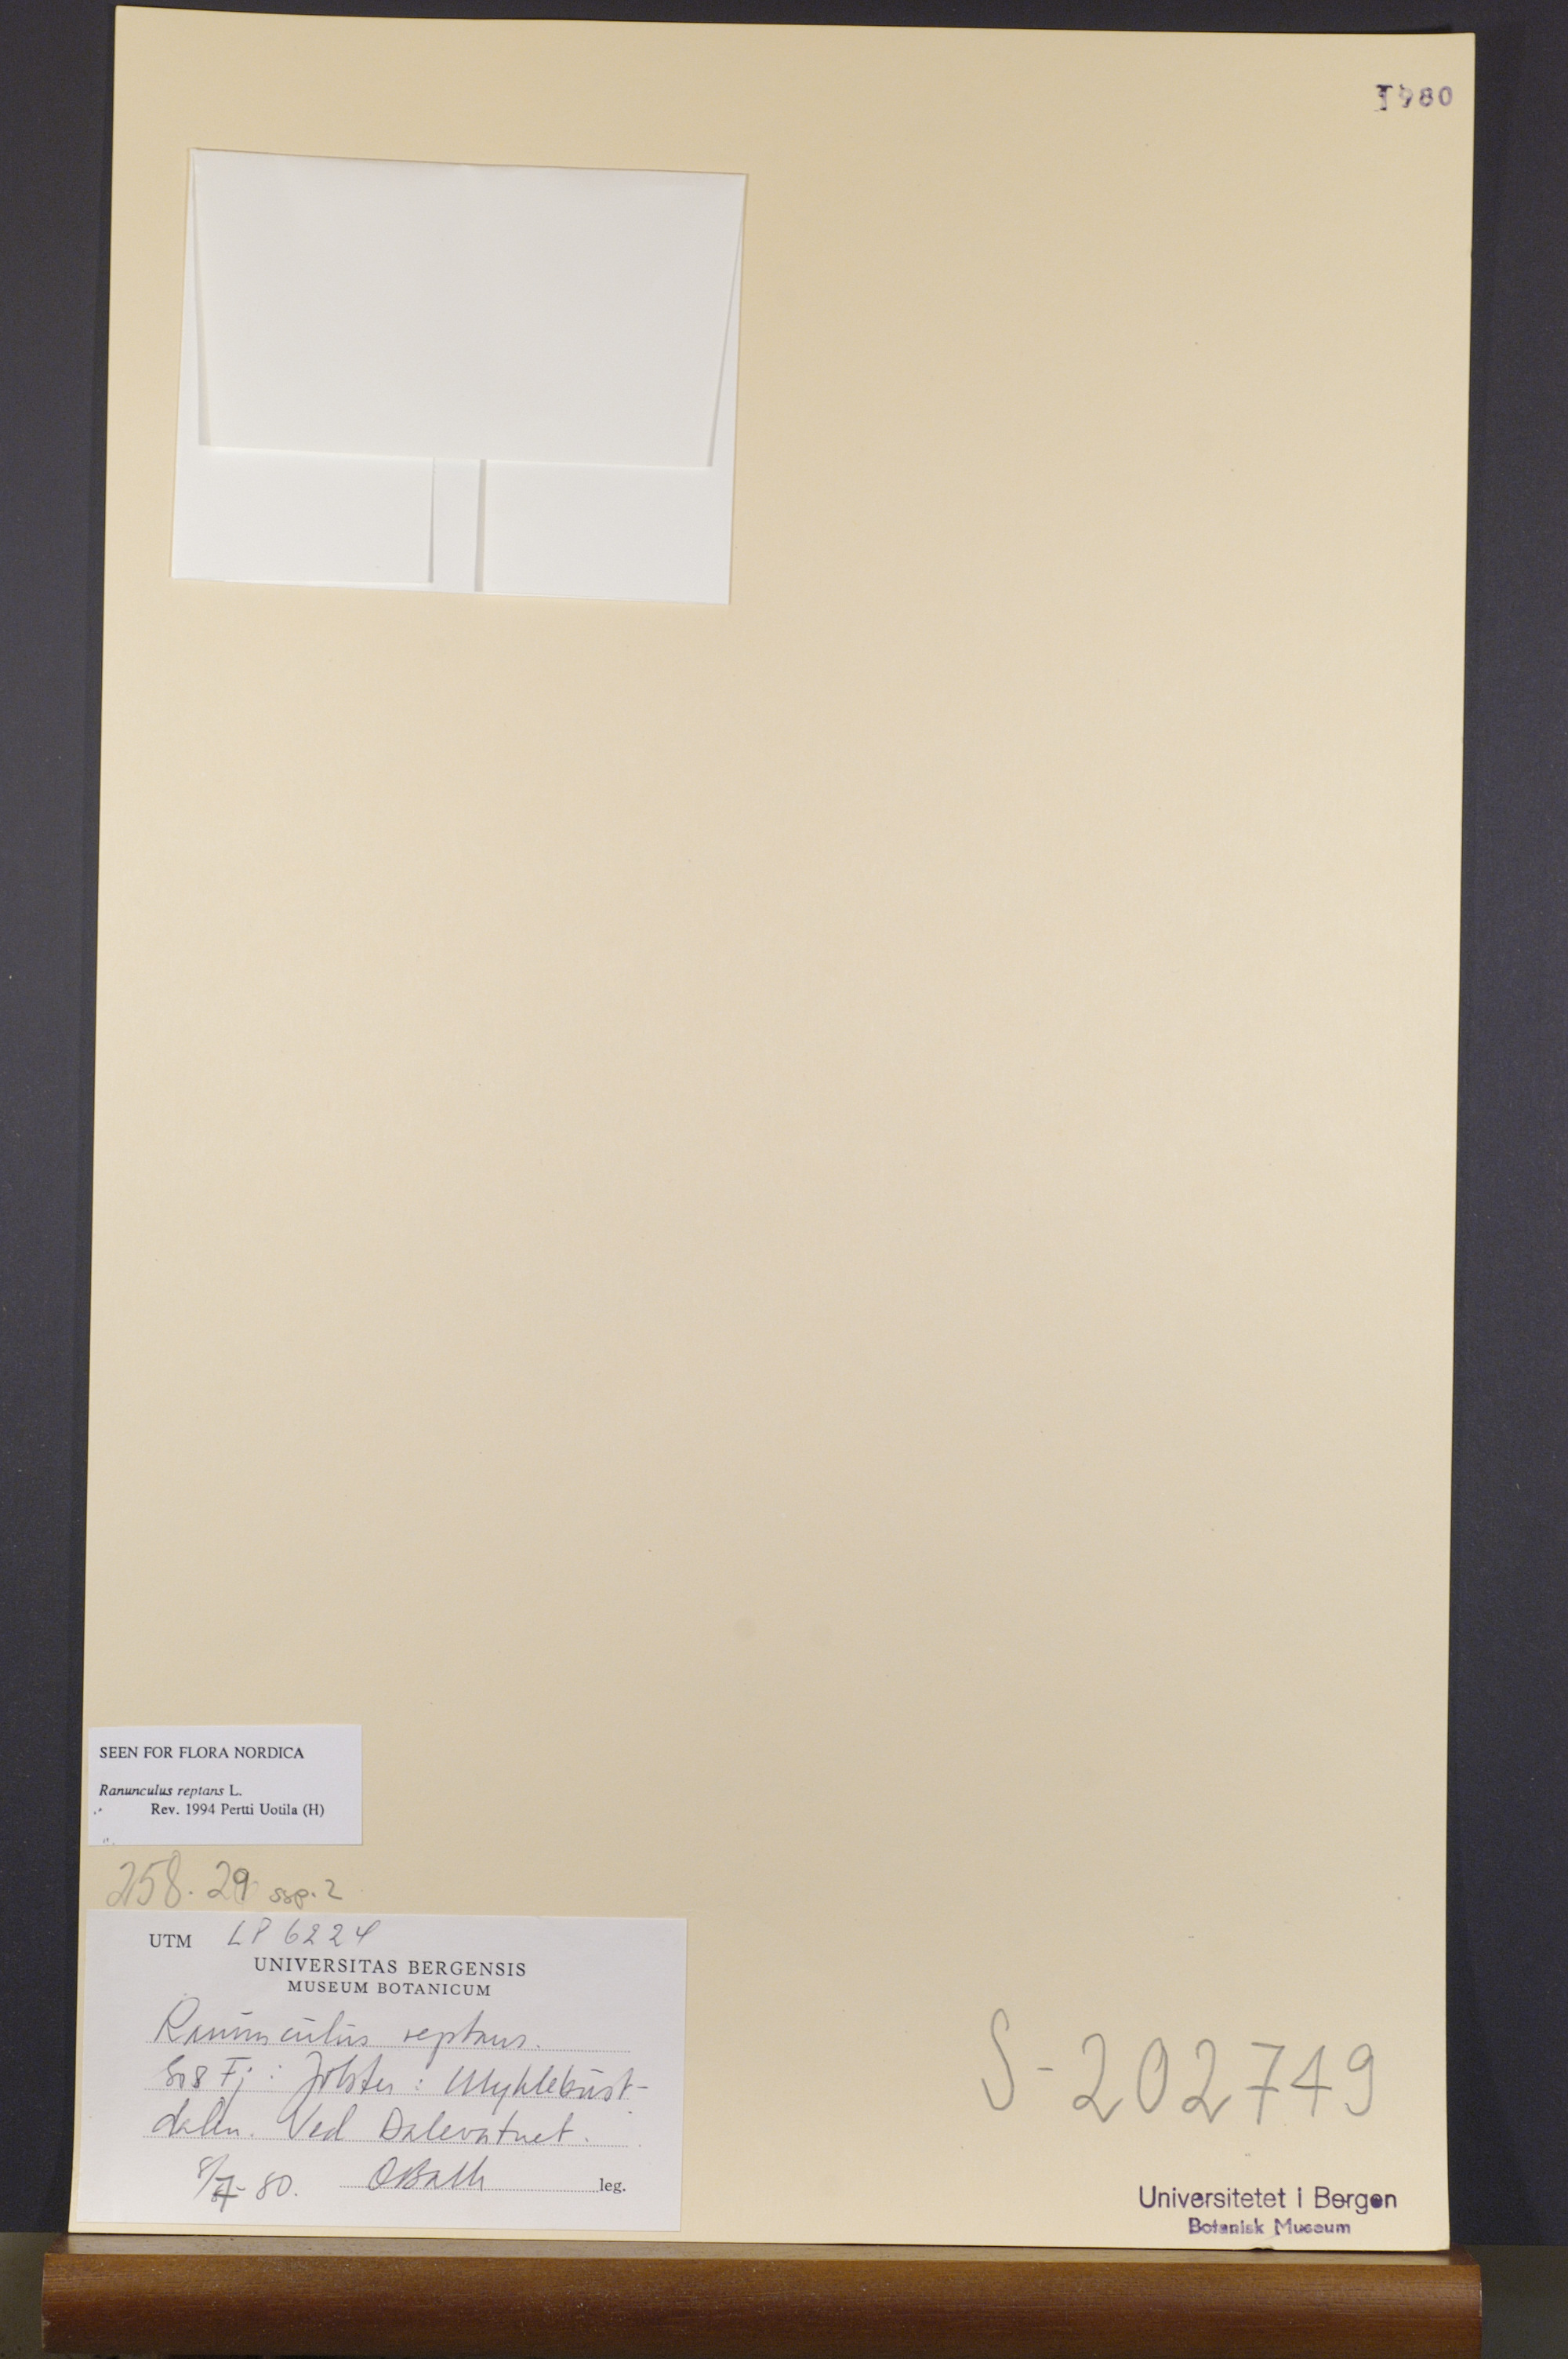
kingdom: Plantae
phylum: Tracheophyta
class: Magnoliopsida
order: Ranunculales
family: Ranunculaceae
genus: Ranunculus
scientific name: Ranunculus reptans
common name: Creeping spearwort
